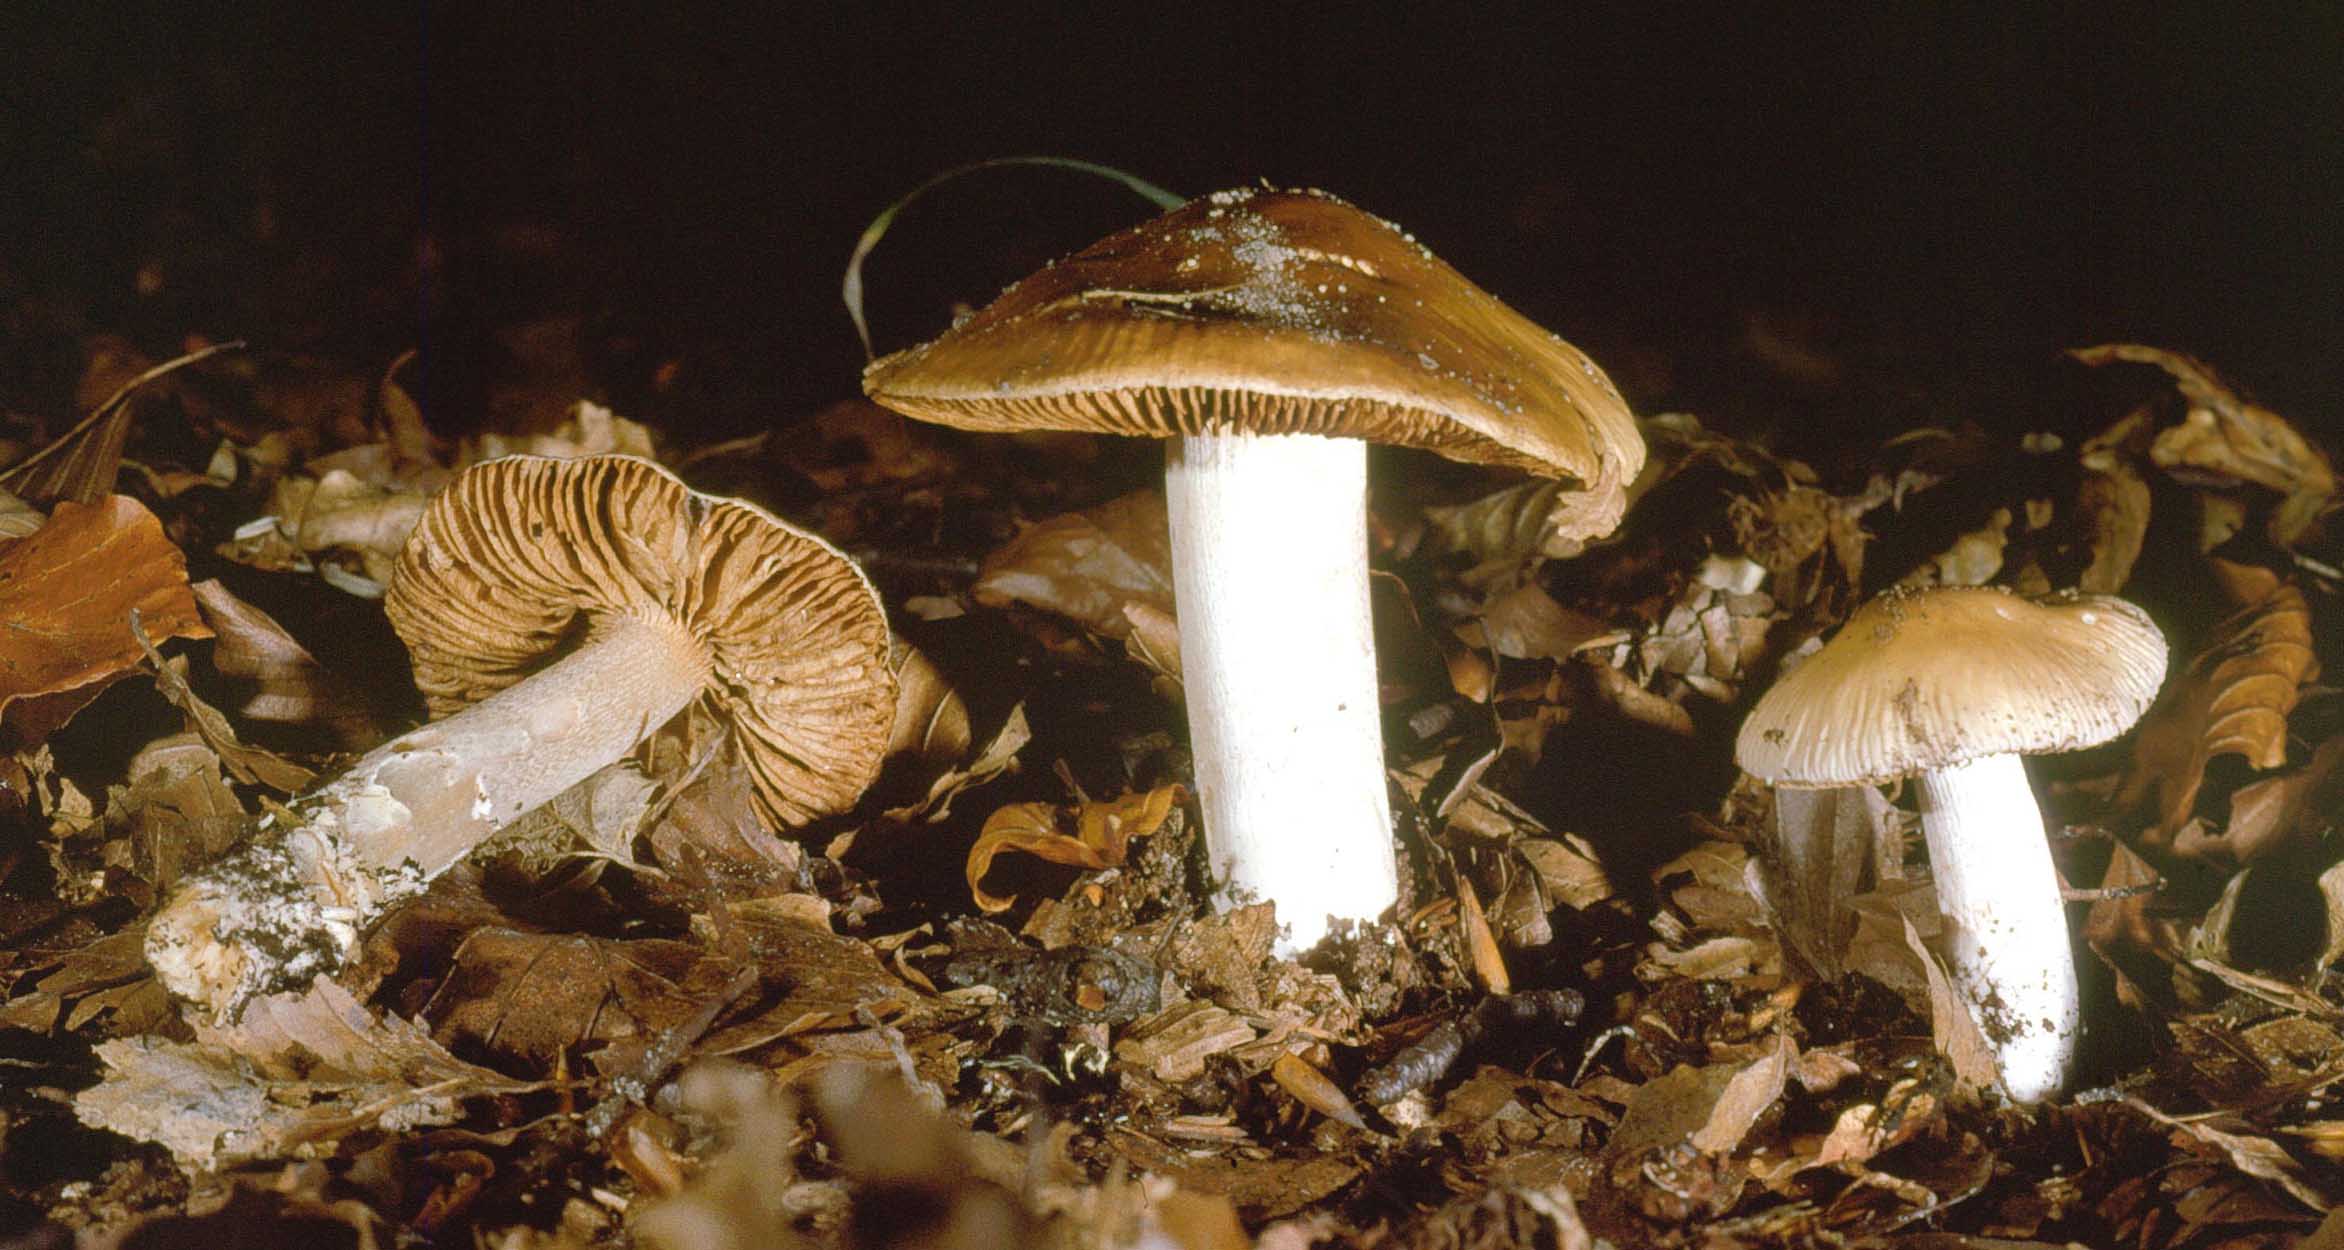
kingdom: Fungi
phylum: Basidiomycota
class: Agaricomycetes
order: Agaricales
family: Cortinariaceae
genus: Cortinarius
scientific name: Cortinarius elatior
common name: høj slørhat
